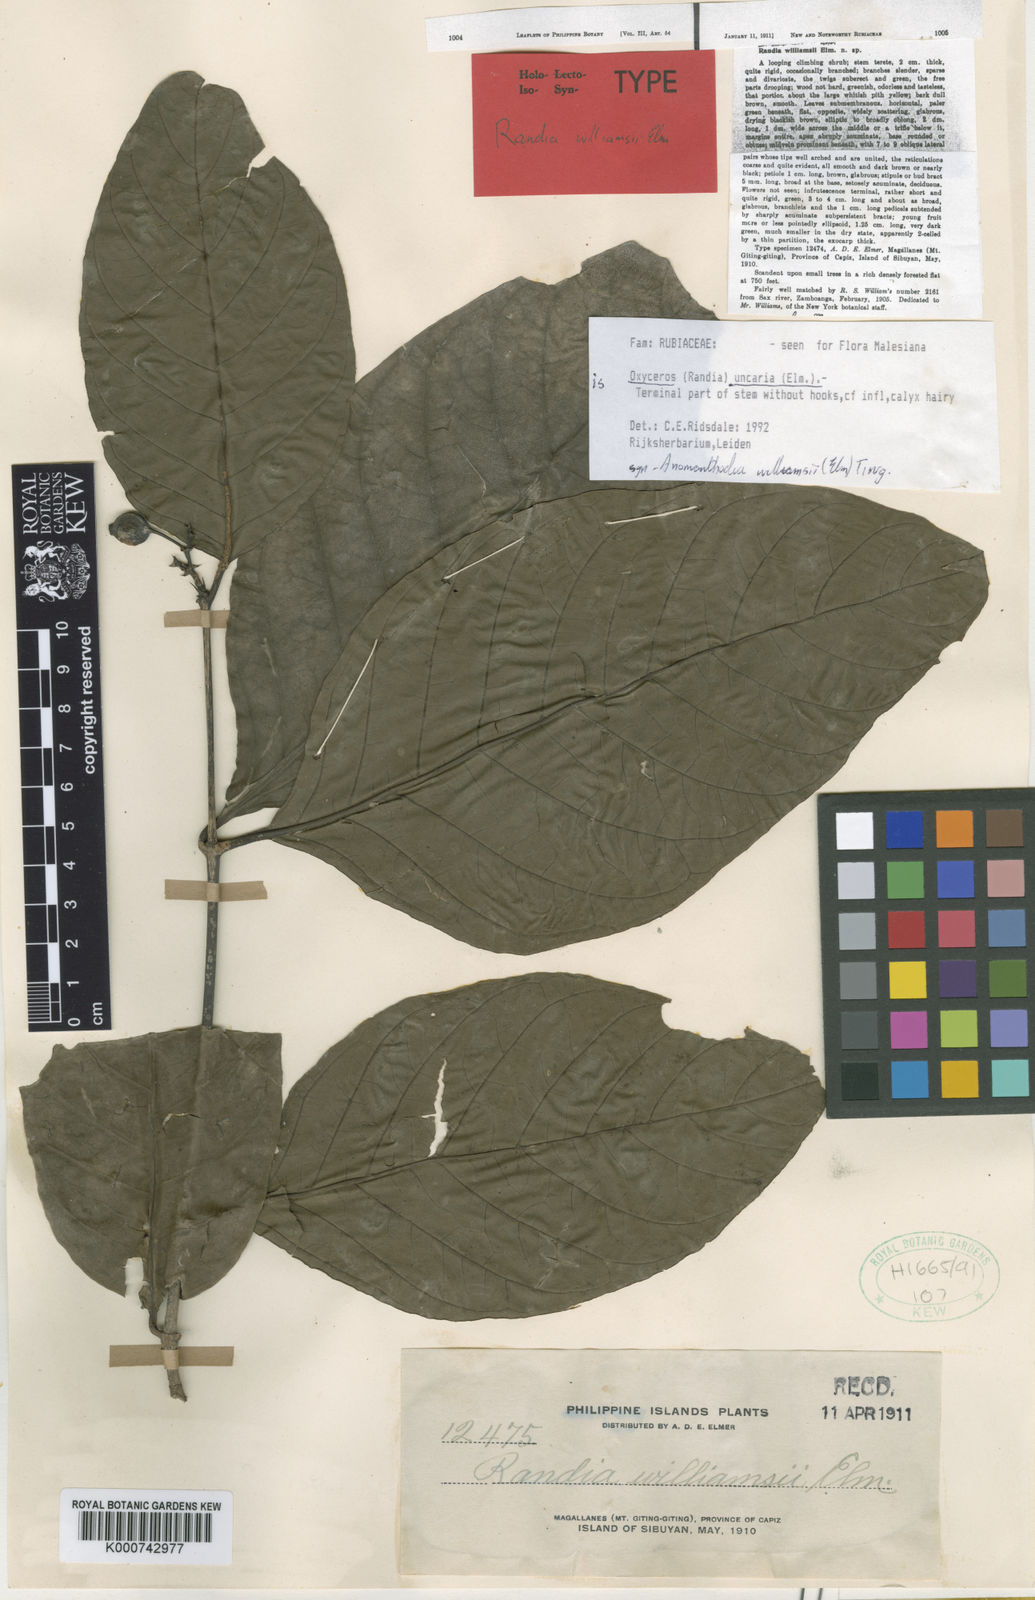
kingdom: Plantae
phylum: Tracheophyta
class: Magnoliopsida
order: Gentianales
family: Rubiaceae
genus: Oxyceros
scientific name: Oxyceros bispinosus
